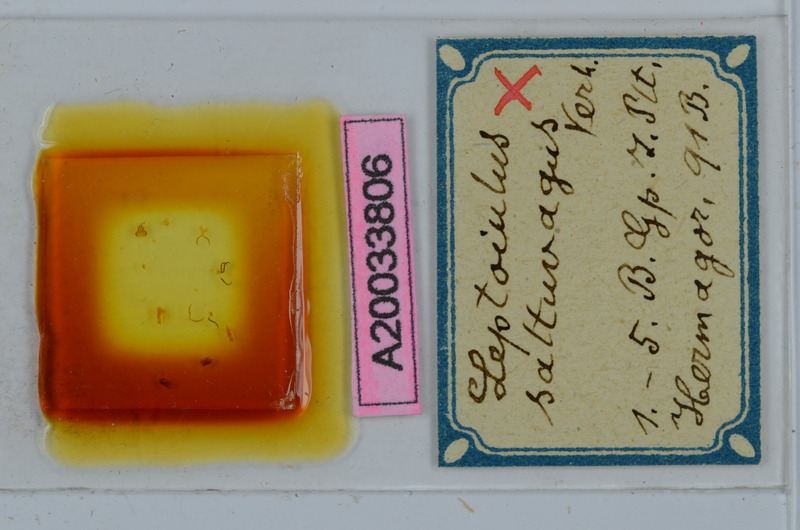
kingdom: Animalia
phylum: Arthropoda
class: Diplopoda
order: Julida
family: Julidae
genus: Leptoiulus
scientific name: Leptoiulus saltuvagus
